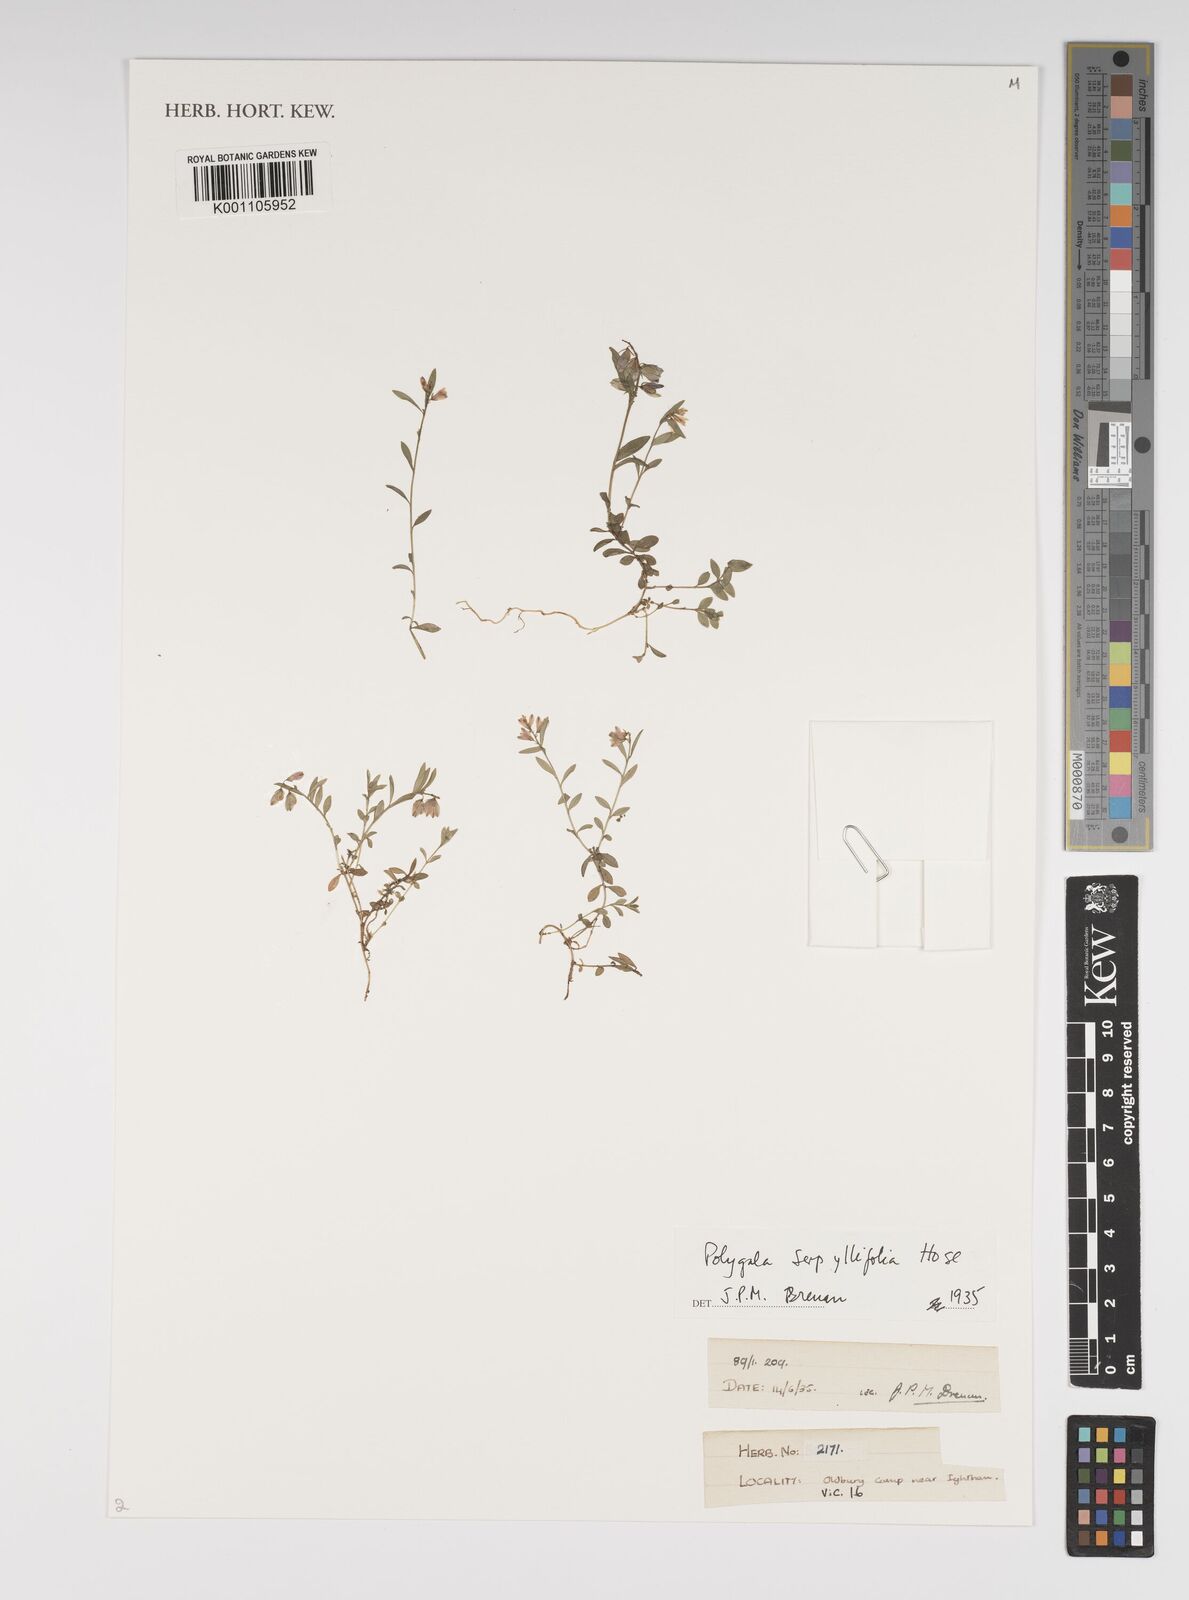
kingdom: Plantae
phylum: Tracheophyta
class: Magnoliopsida
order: Fabales
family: Polygalaceae
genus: Polygala
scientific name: Polygala serpyllifolia
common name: Heath milkwort
